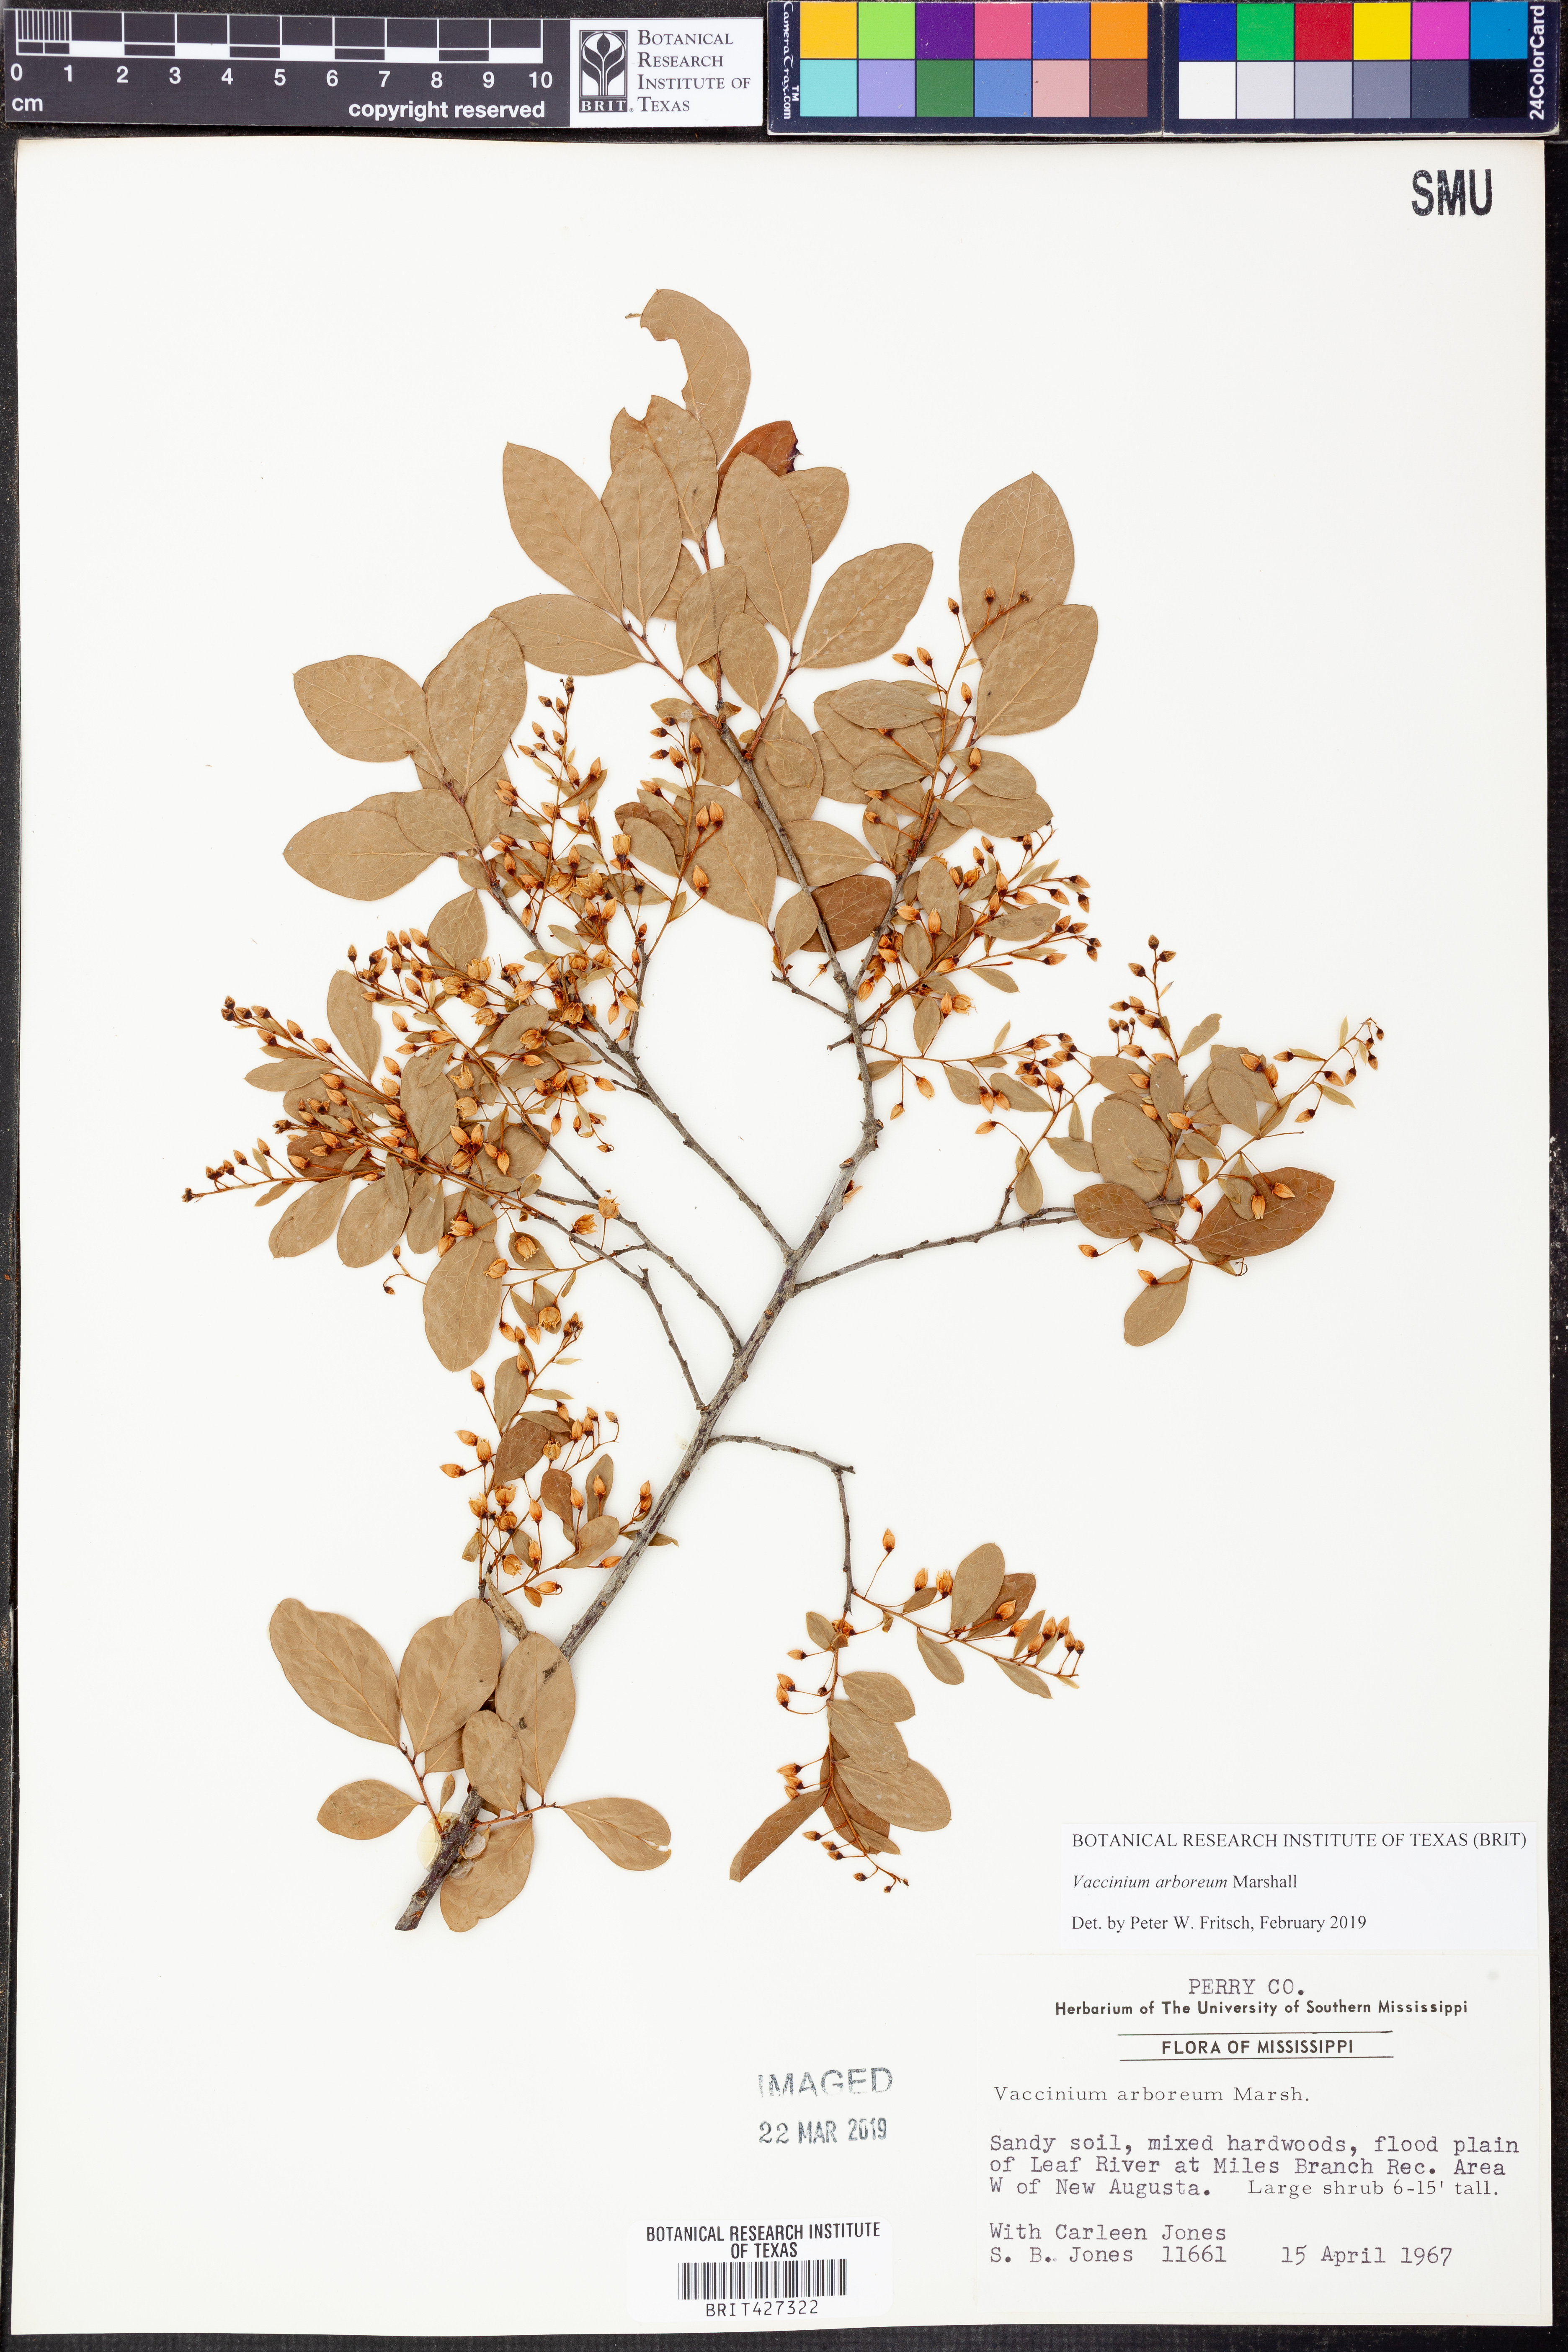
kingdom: Plantae
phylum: Tracheophyta
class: Magnoliopsida
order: Ericales
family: Ericaceae
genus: Vaccinium
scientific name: Vaccinium arboreum
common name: Farkleberry
